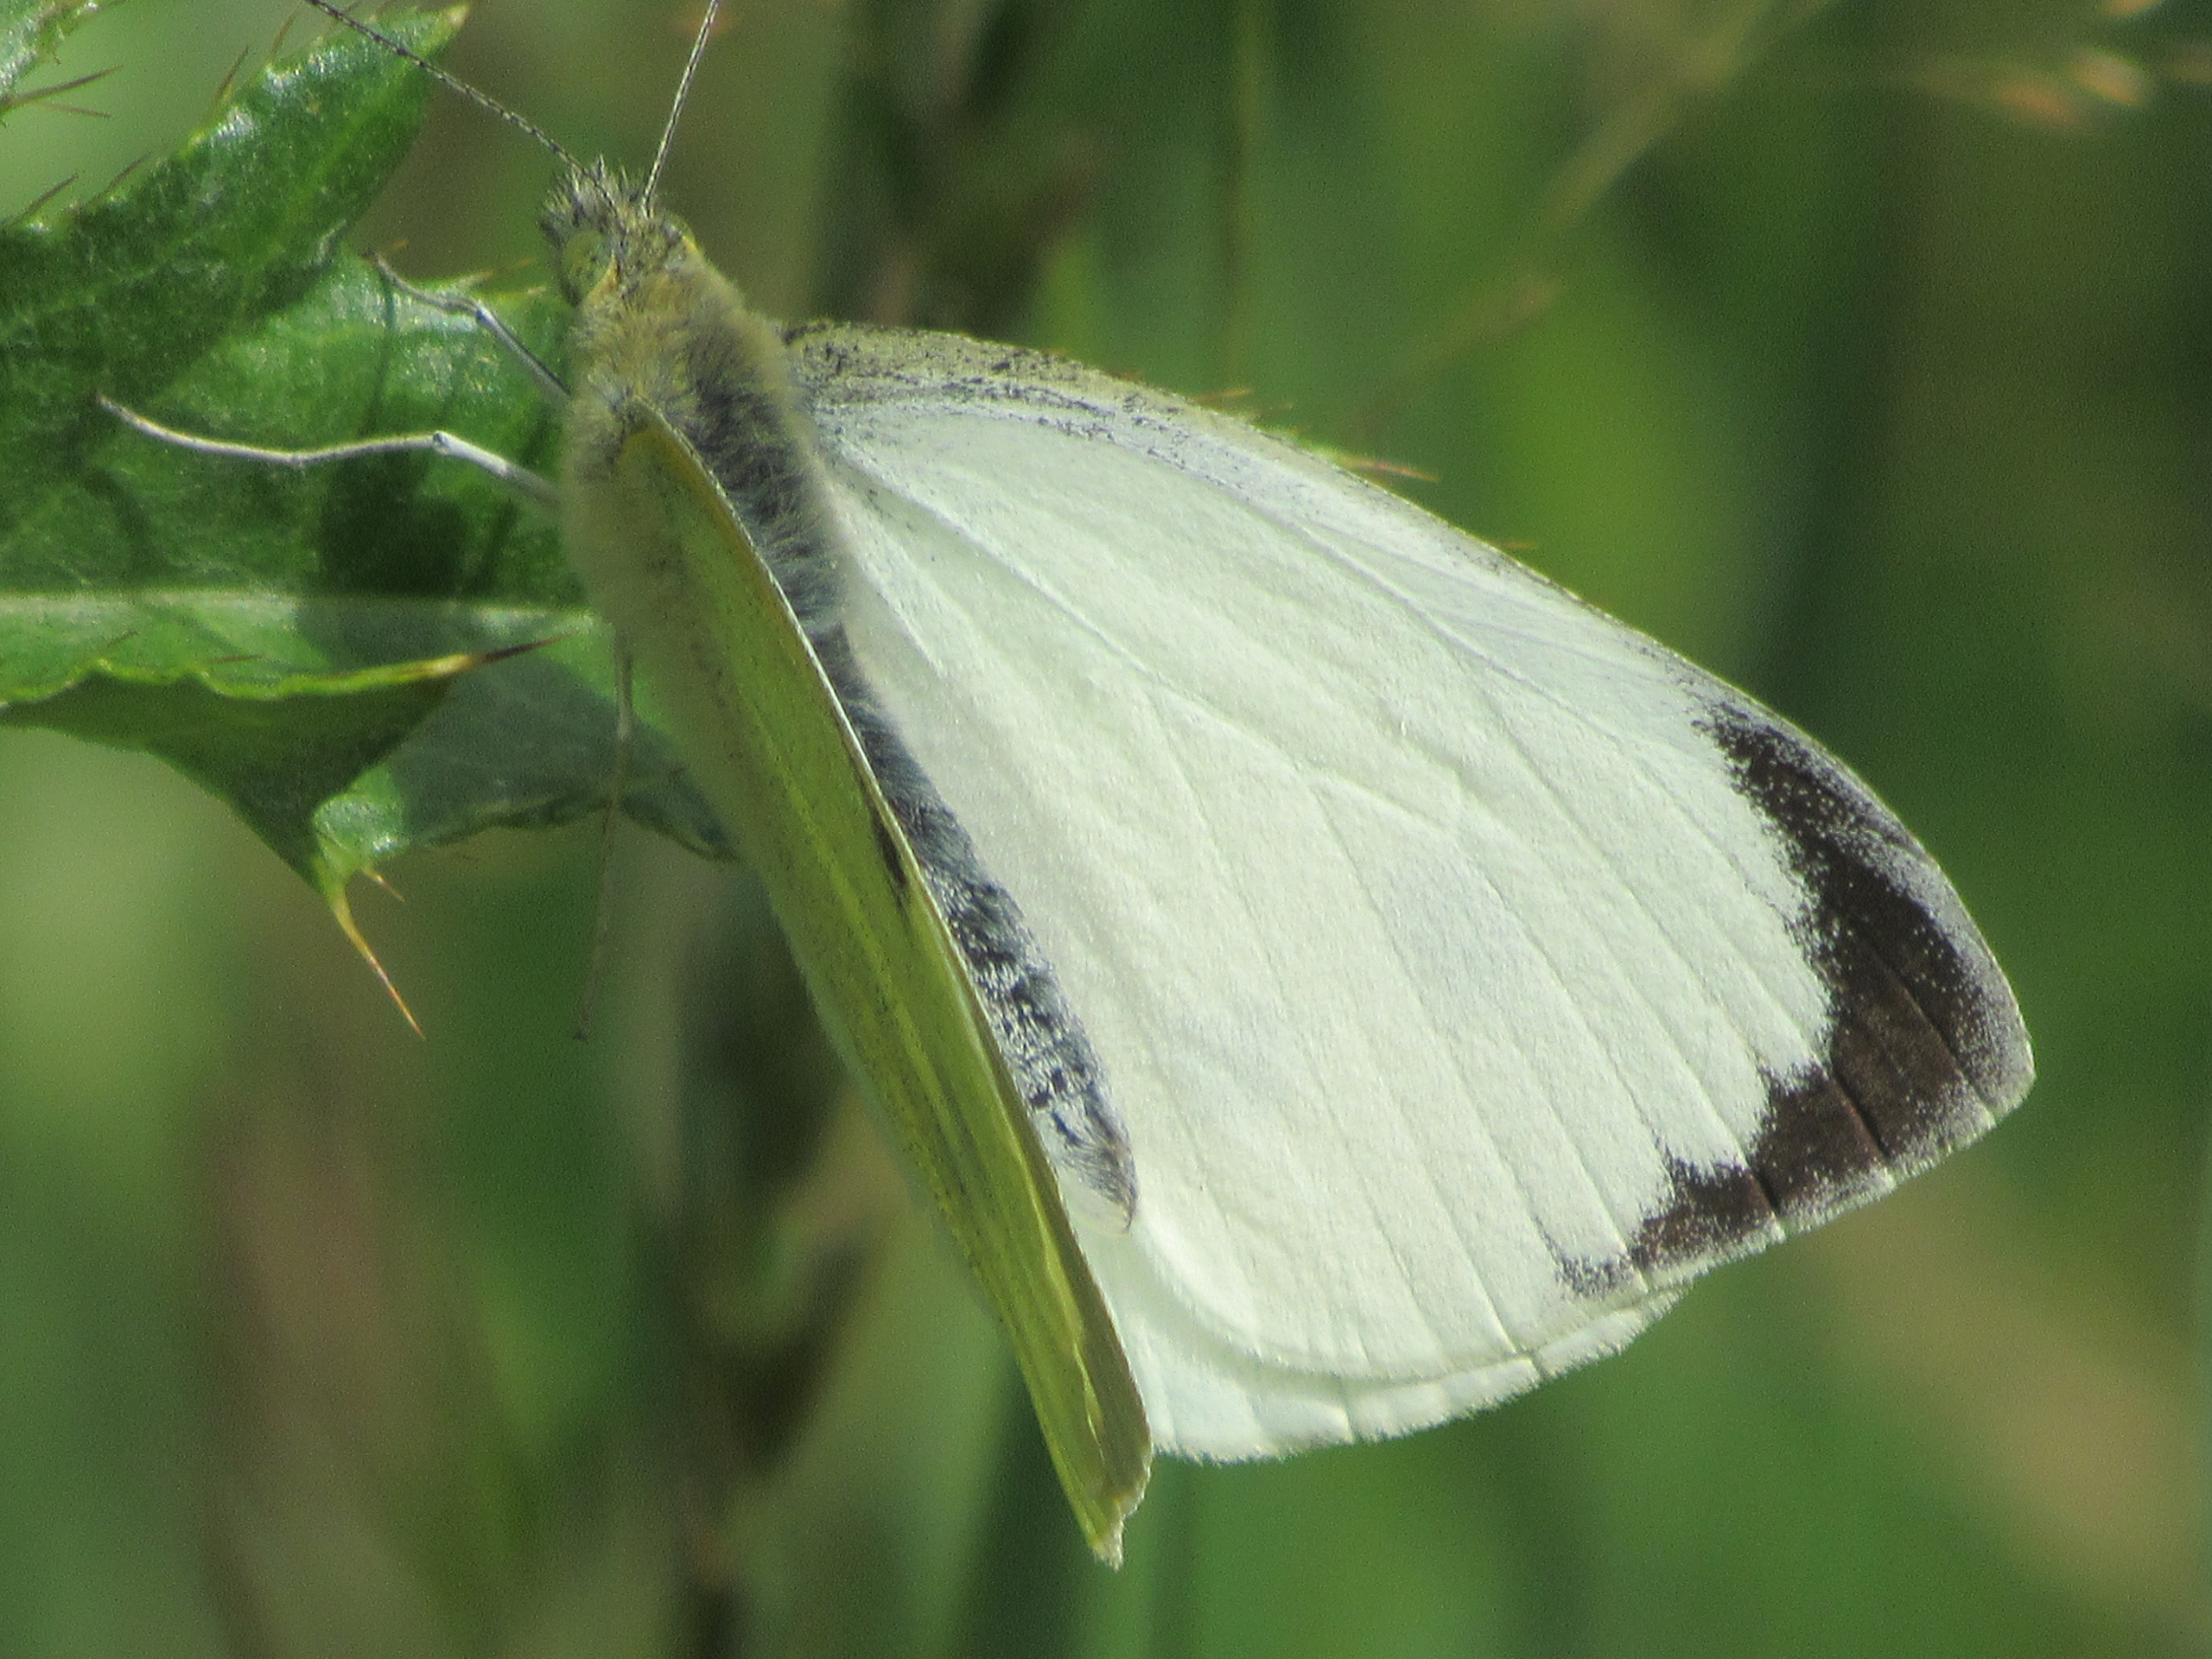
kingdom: Animalia
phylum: Arthropoda
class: Insecta
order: Lepidoptera
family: Pieridae
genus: Pieris
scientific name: Pieris brassicae
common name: Stor kålsommerfugl
